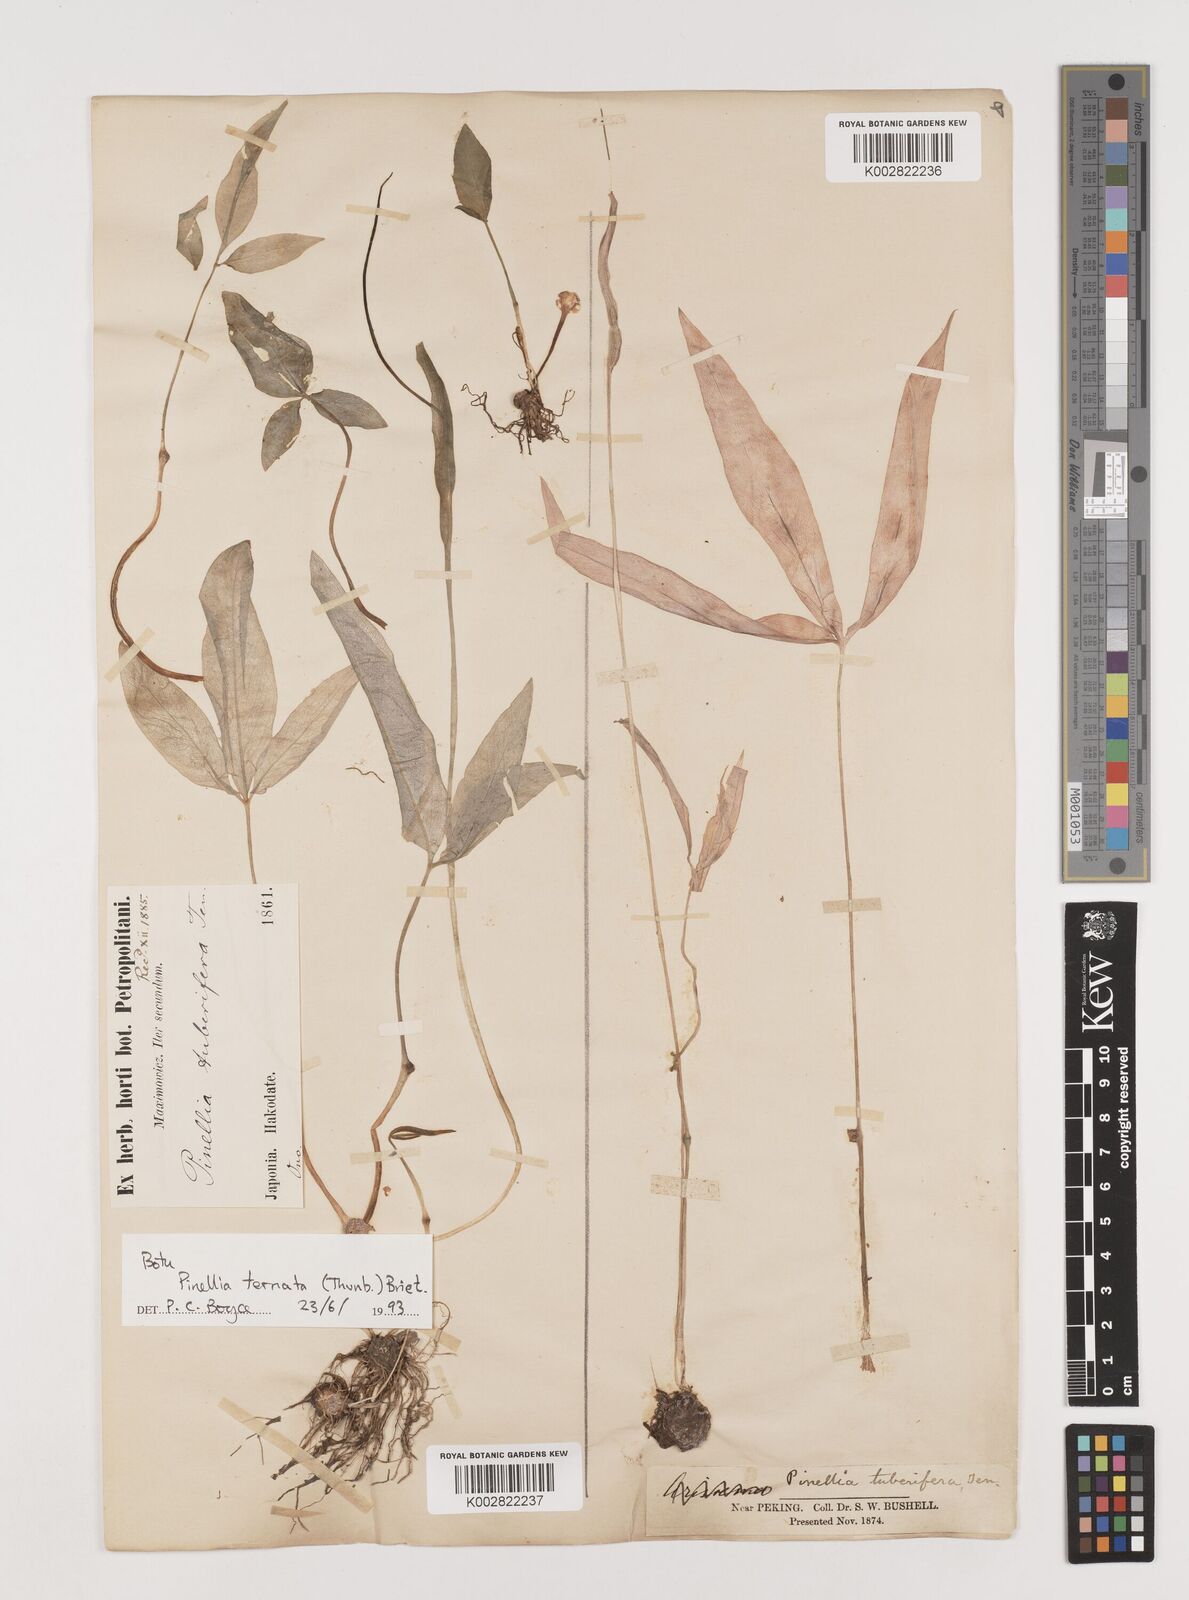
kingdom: Plantae
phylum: Tracheophyta
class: Liliopsida
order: Alismatales
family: Araceae
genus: Pinellia
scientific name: Pinellia ternata
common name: Pinellia
